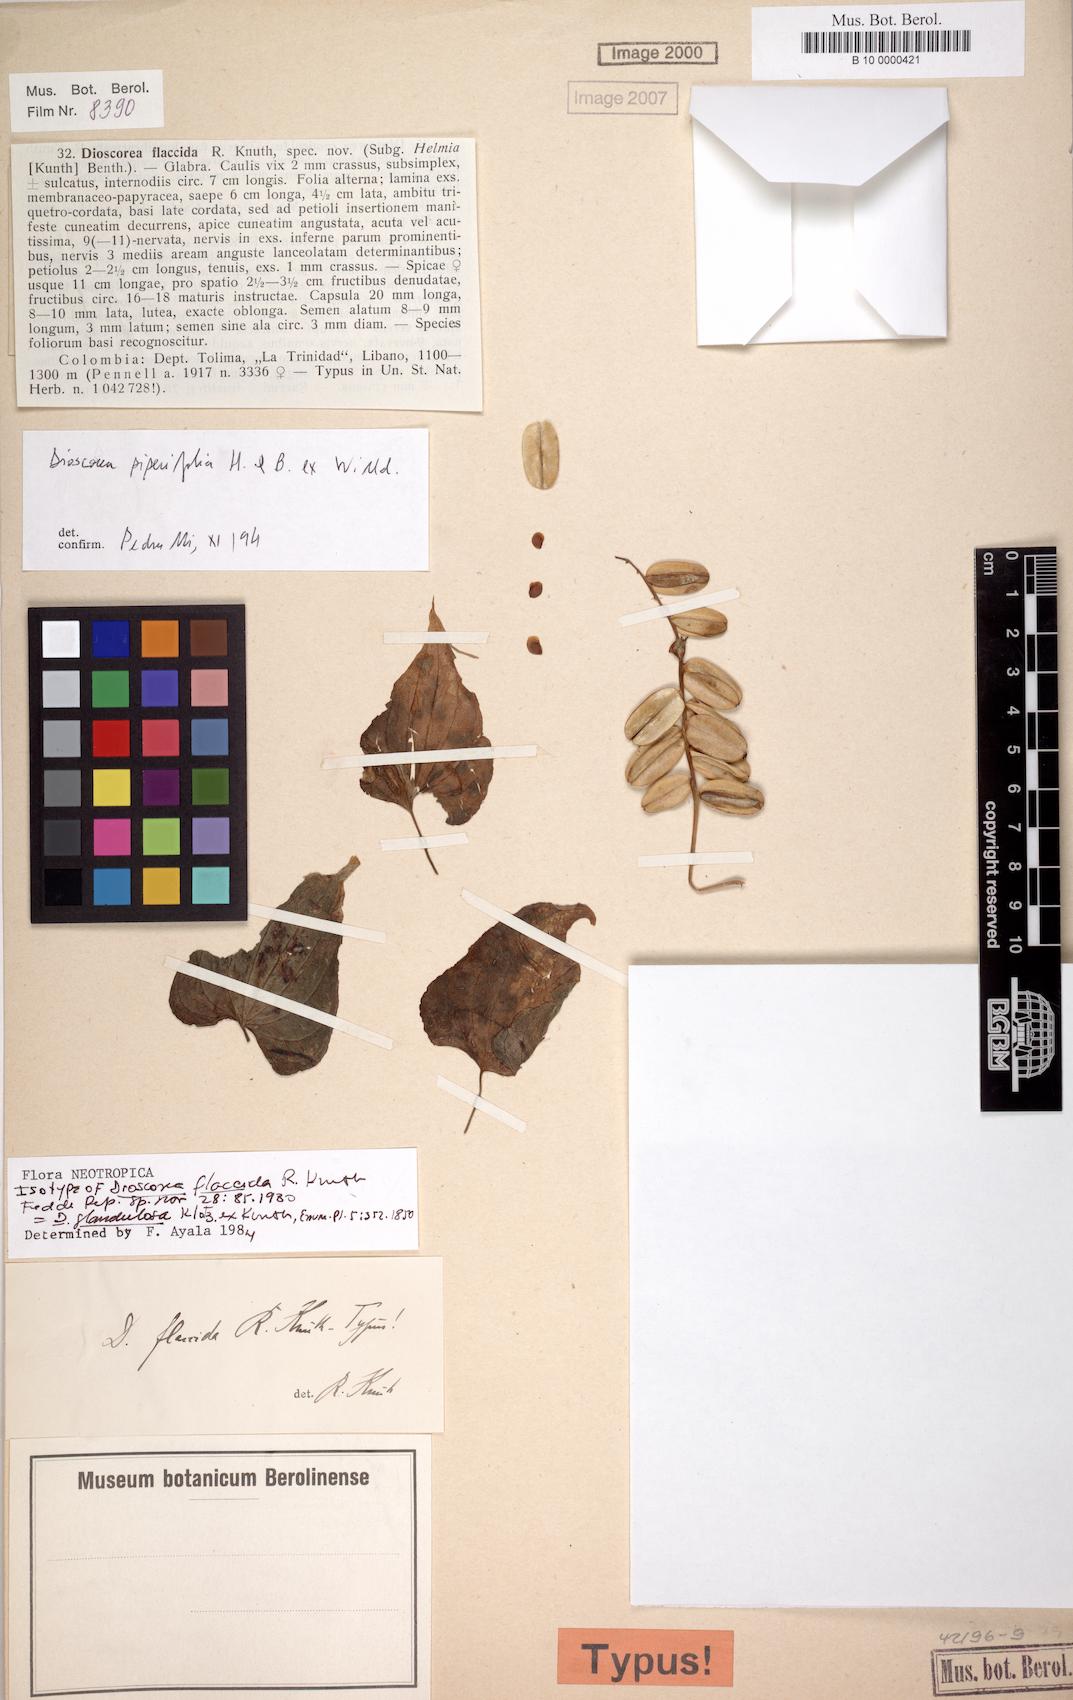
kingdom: Plantae
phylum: Tracheophyta
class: Liliopsida
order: Dioscoreales
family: Dioscoreaceae
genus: Dioscorea
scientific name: Dioscorea piperifolia
